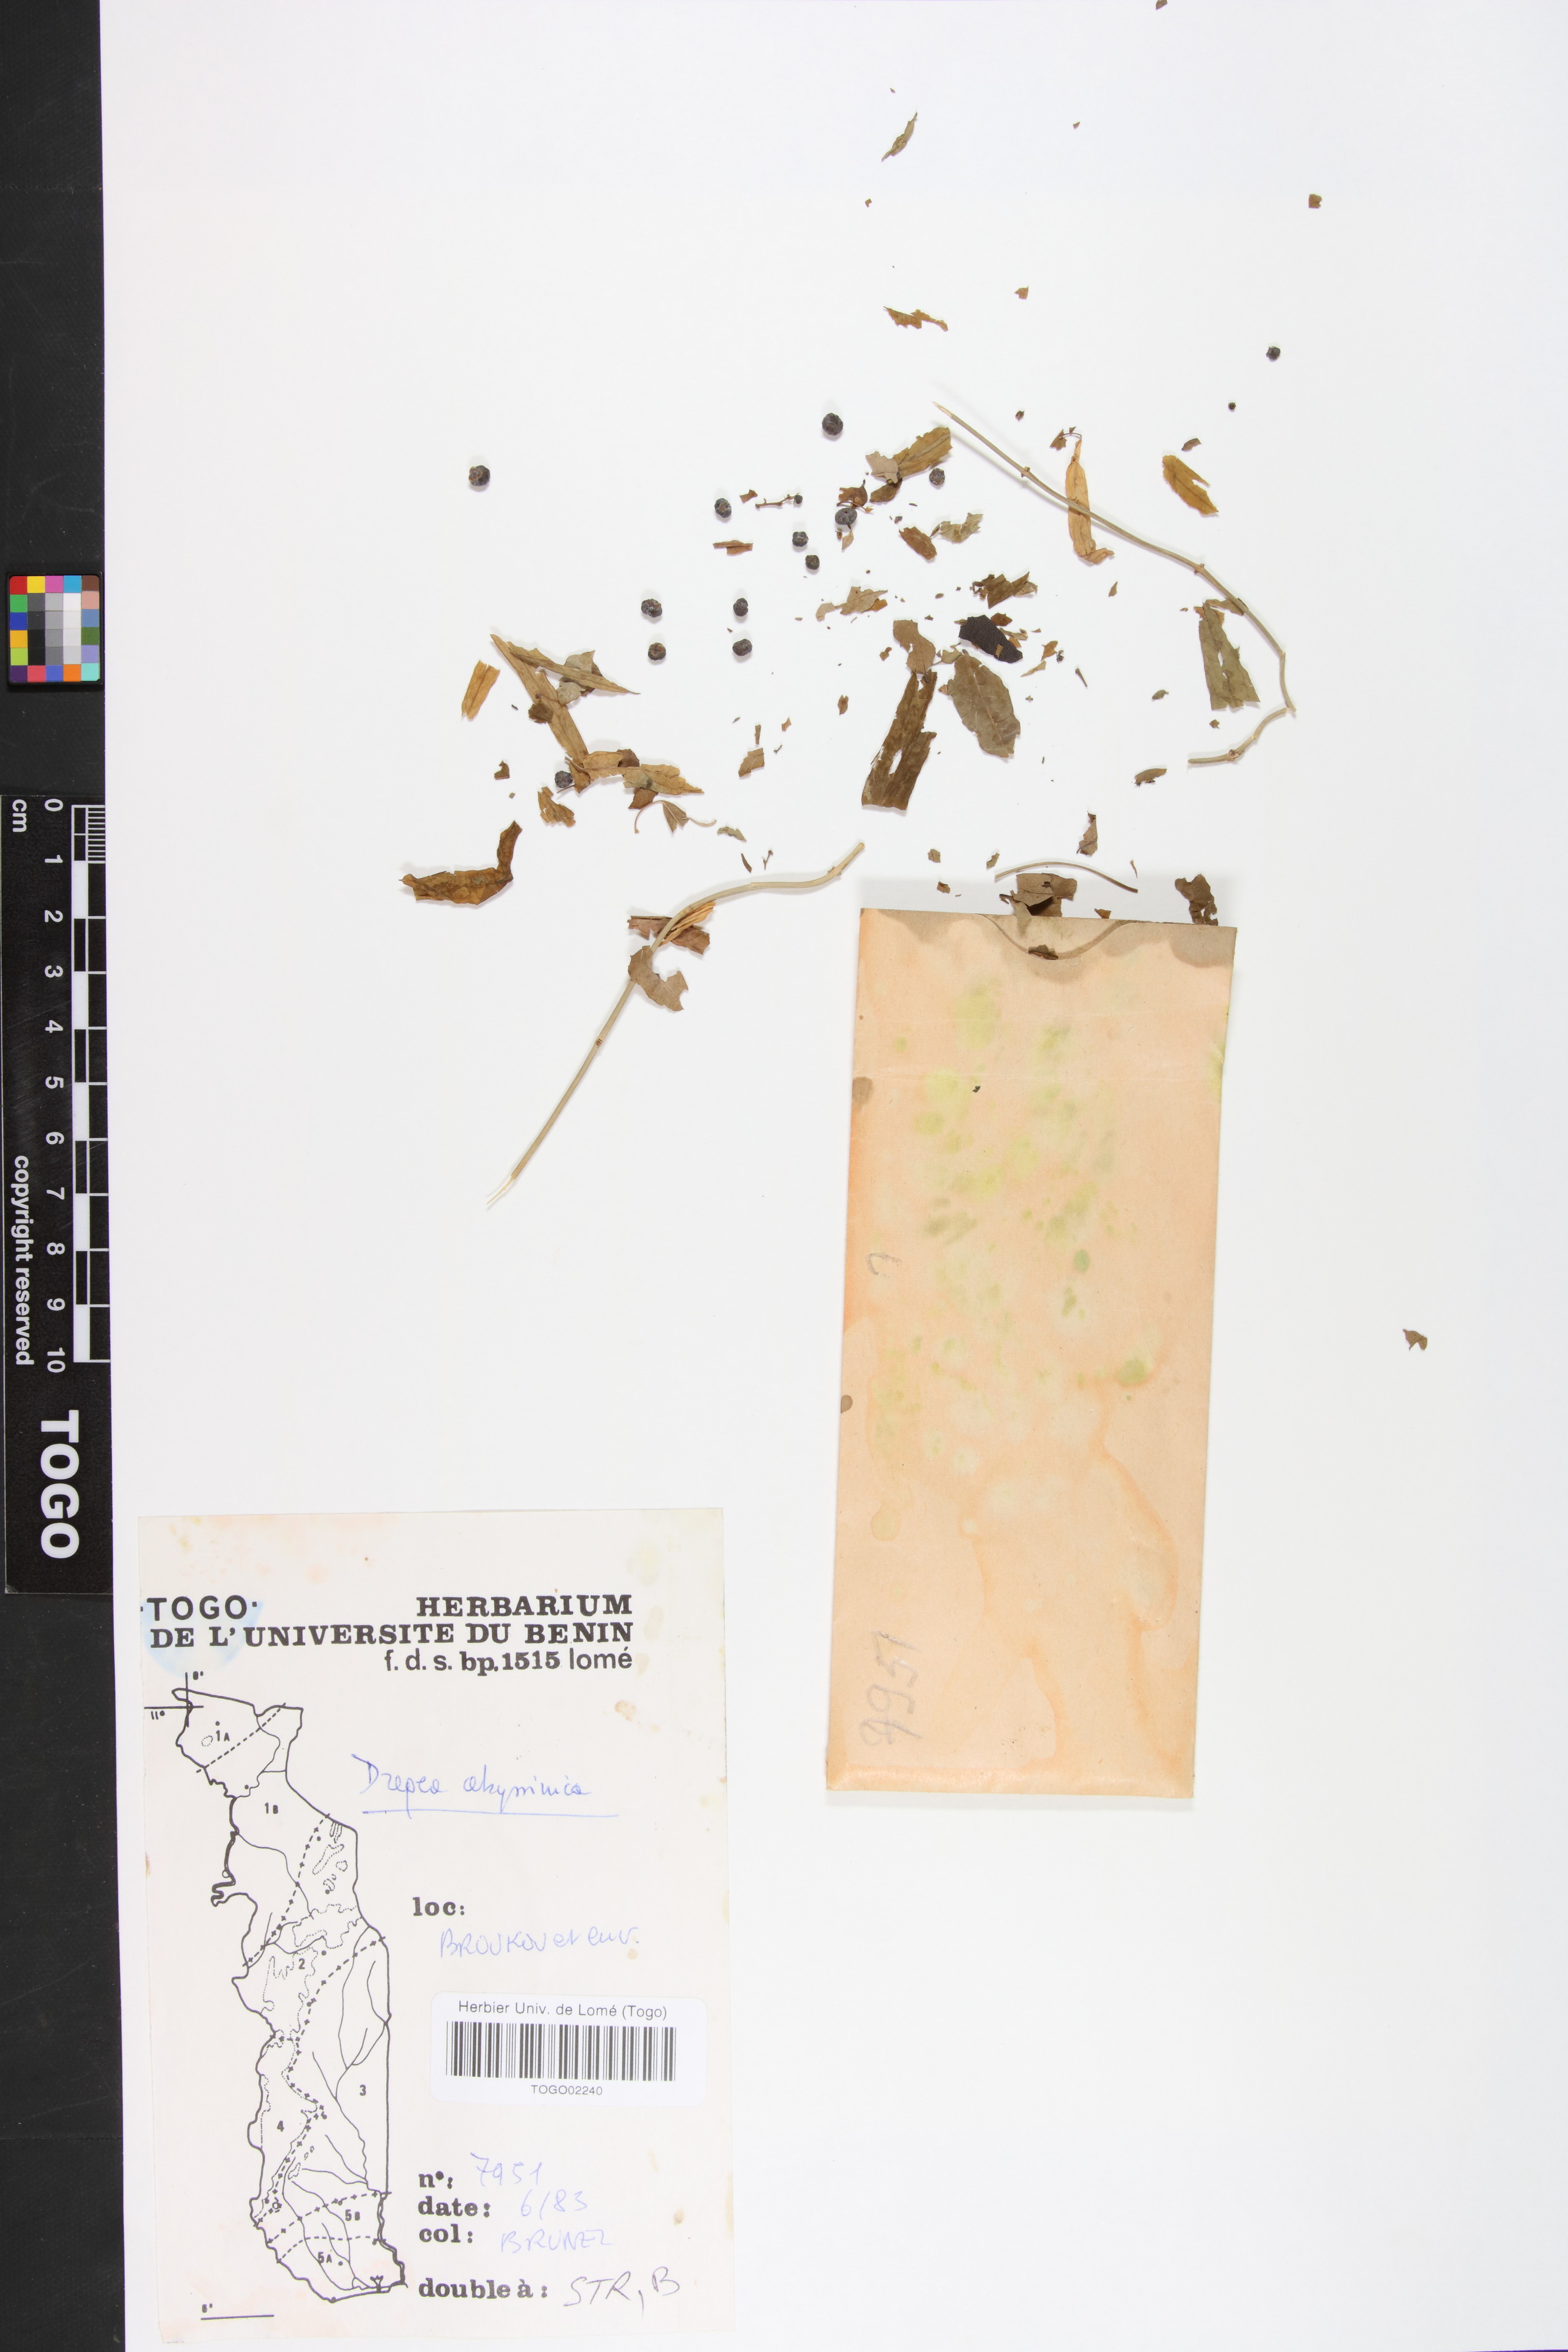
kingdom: Plantae
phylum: Tracheophyta
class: Magnoliopsida
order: Gentianales
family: Apocynaceae
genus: Stephanotis
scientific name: Stephanotis abyssinica
